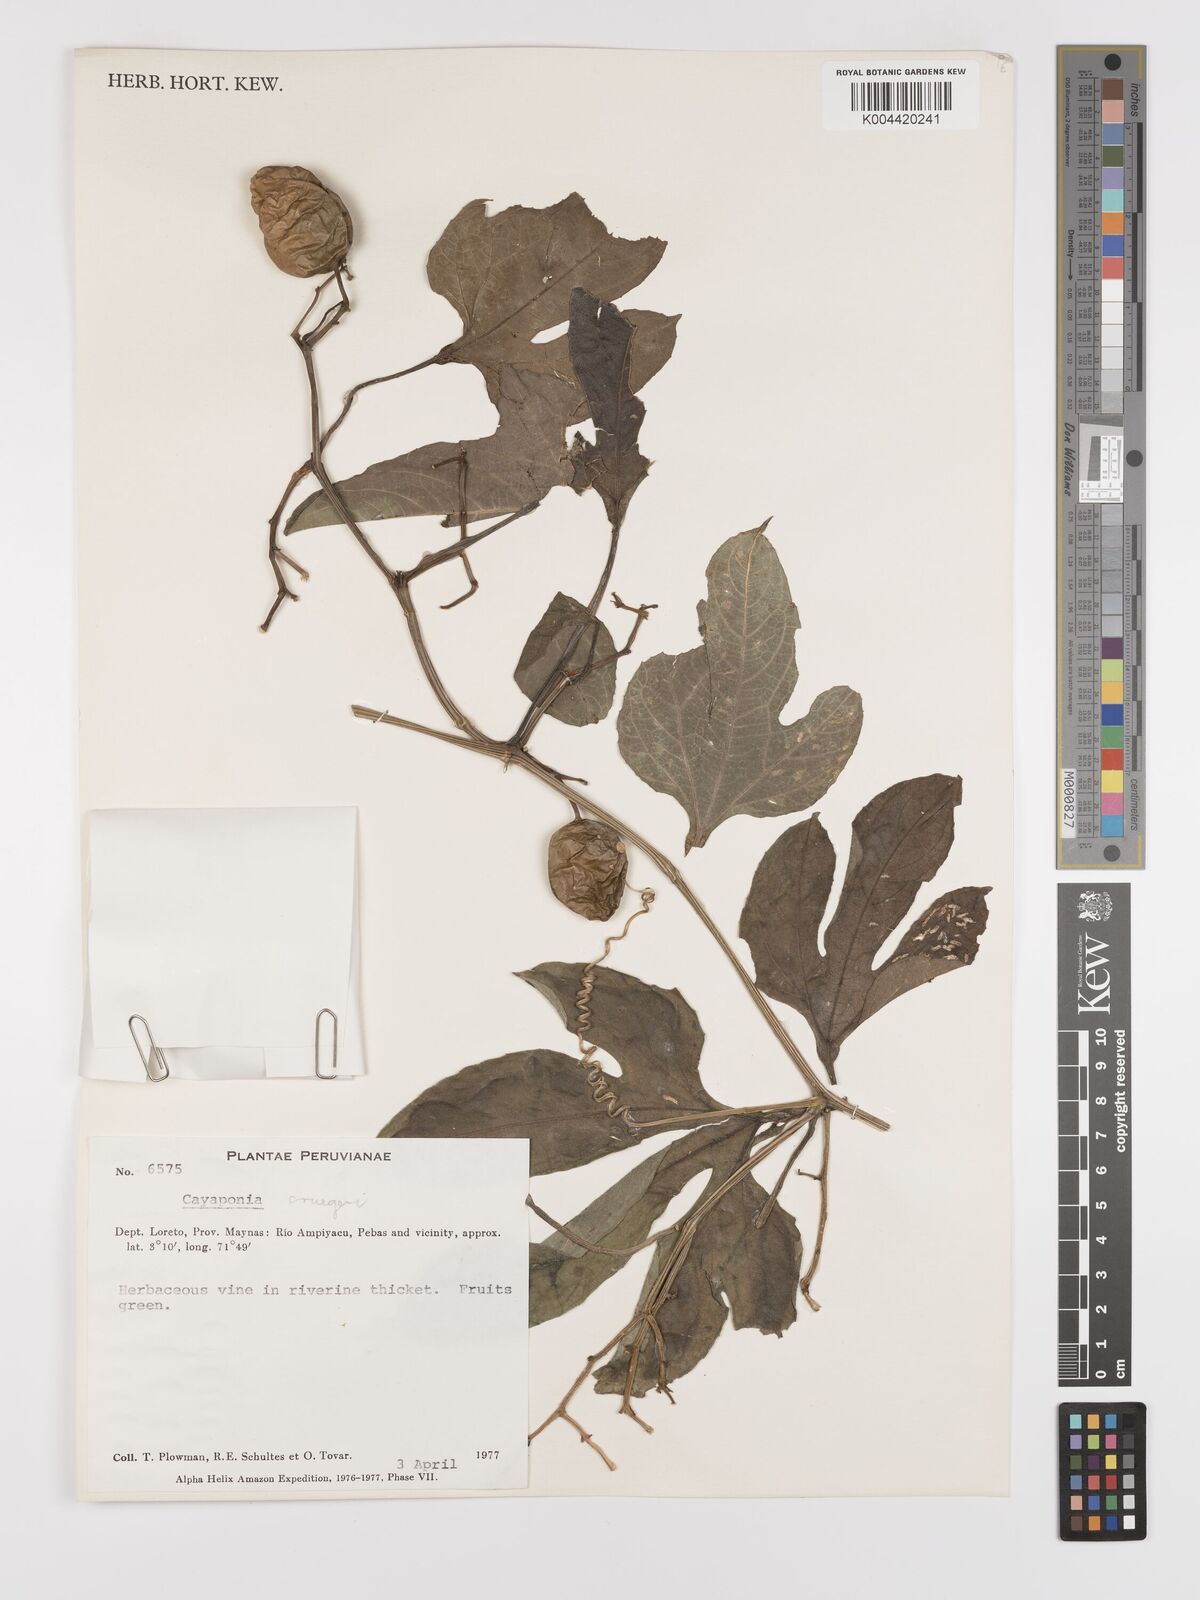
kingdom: Plantae
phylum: Tracheophyta
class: Magnoliopsida
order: Cucurbitales
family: Cucurbitaceae
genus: Cayaponia
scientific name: Cayaponia cruegeri
